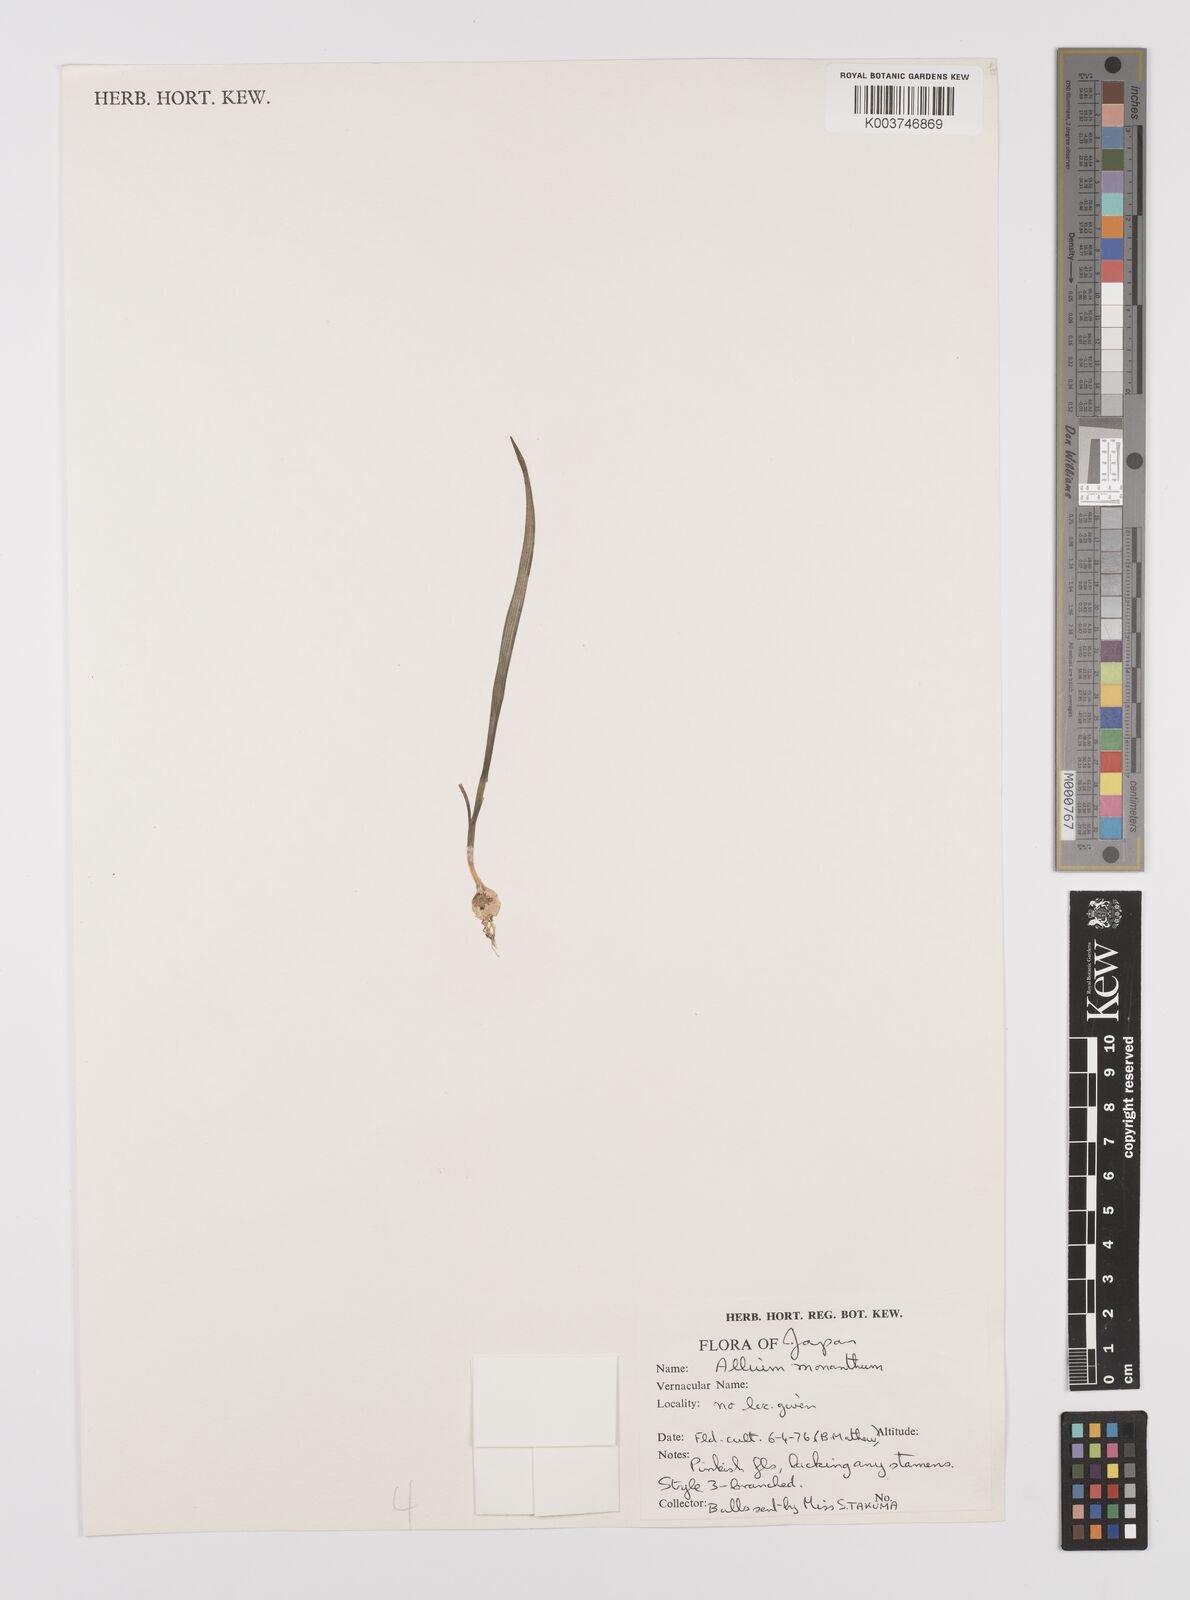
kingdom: Plantae
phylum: Tracheophyta
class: Liliopsida
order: Asparagales
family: Amaryllidaceae
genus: Allium
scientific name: Allium monanthum
